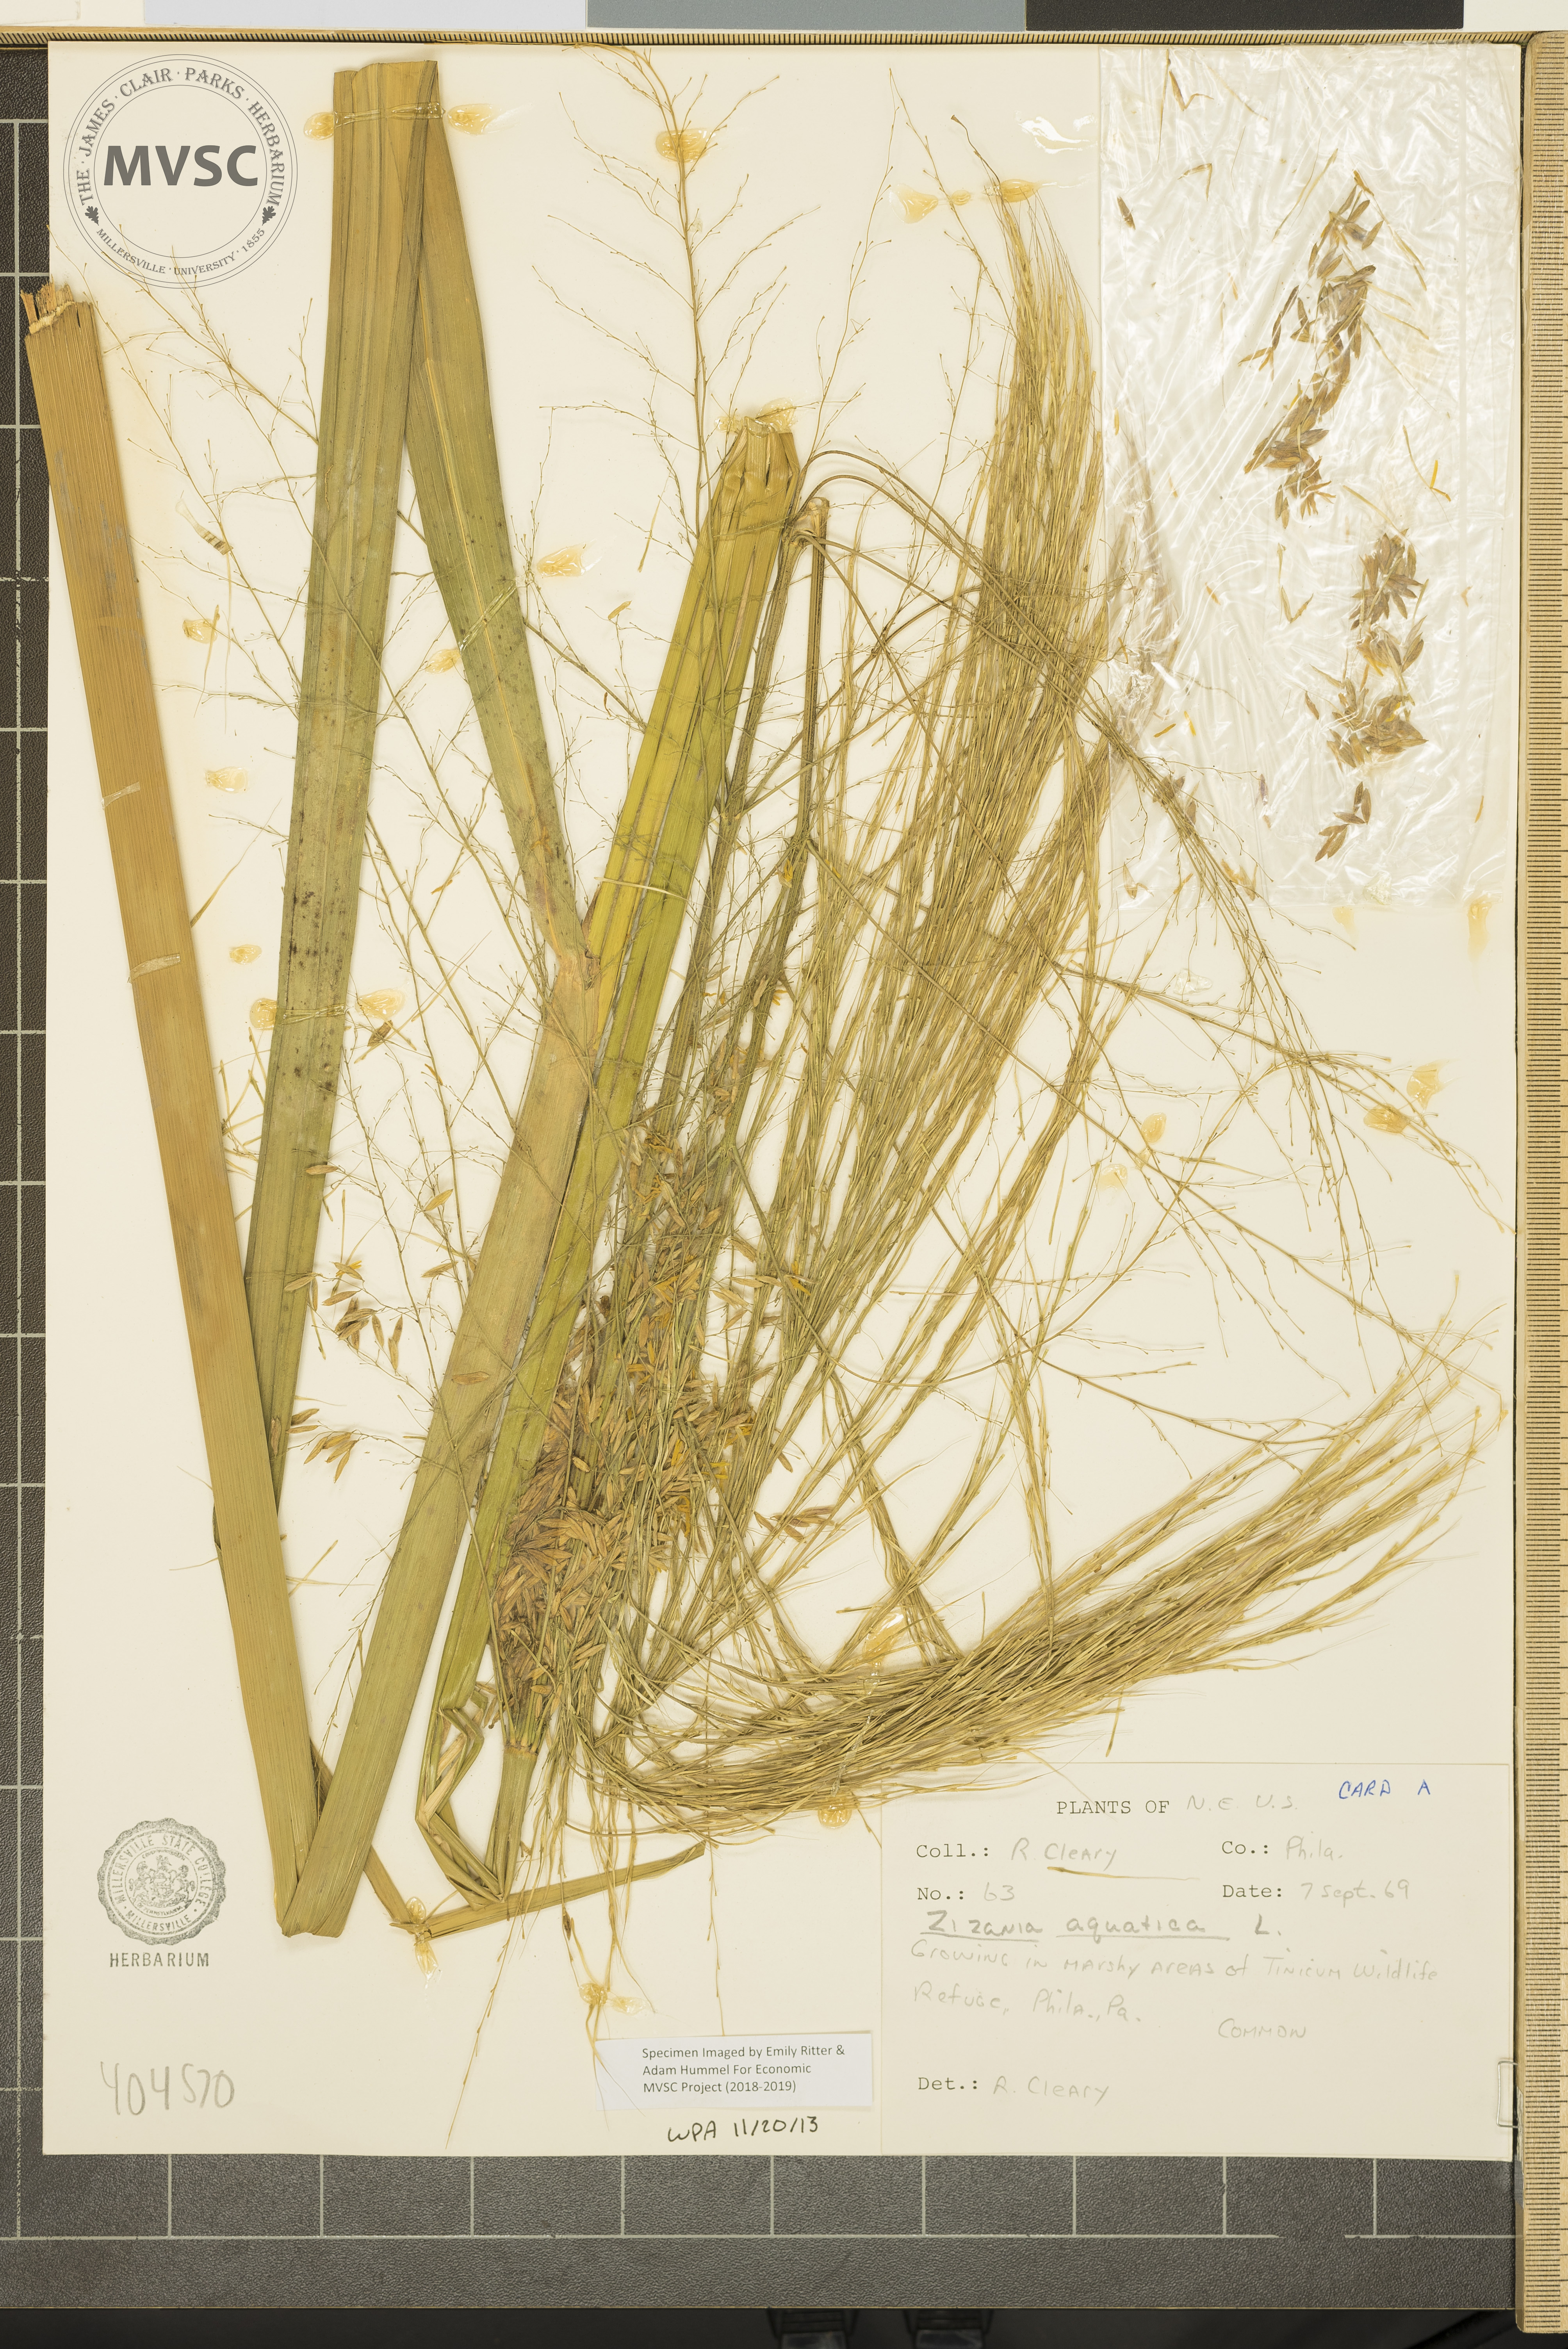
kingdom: Plantae
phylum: Tracheophyta
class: Liliopsida
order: Poales
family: Poaceae
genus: Zizania
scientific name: Zizania aquatica
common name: Annual wildrice
